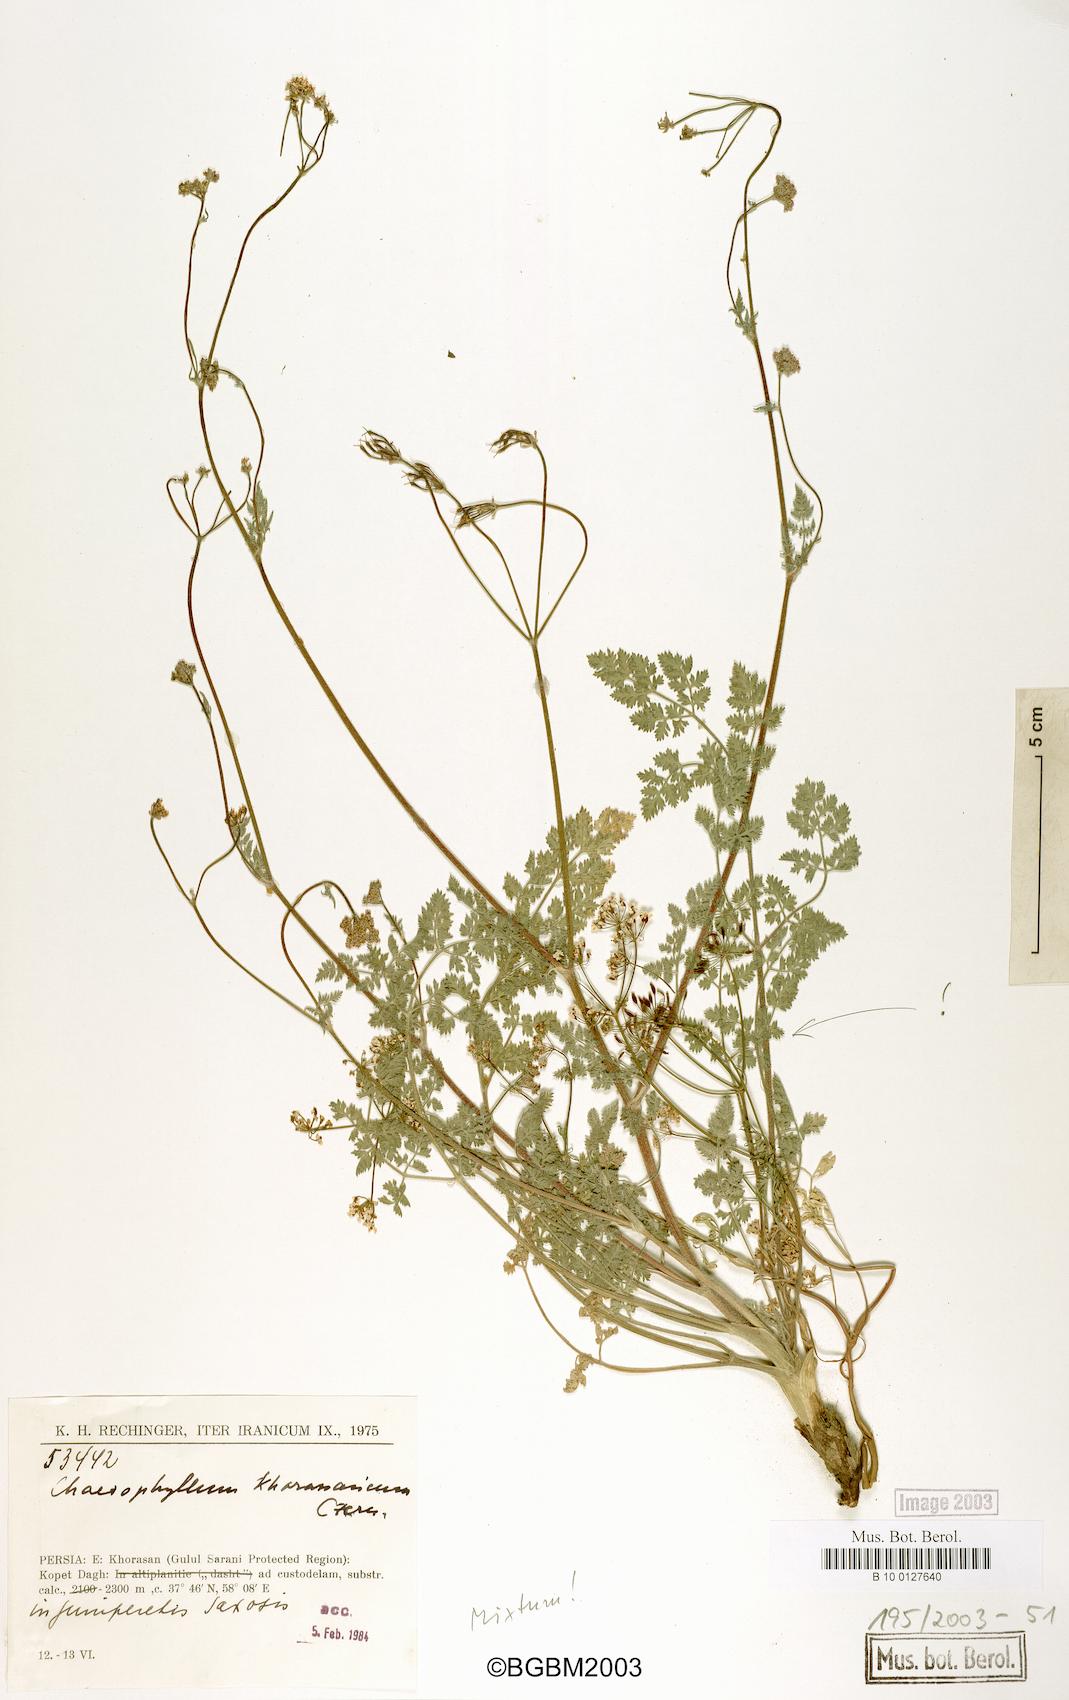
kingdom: Plantae
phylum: Tracheophyta
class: Magnoliopsida
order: Apiales
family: Apiaceae
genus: Chaerophyllum
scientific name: Chaerophyllum khorassanicum
